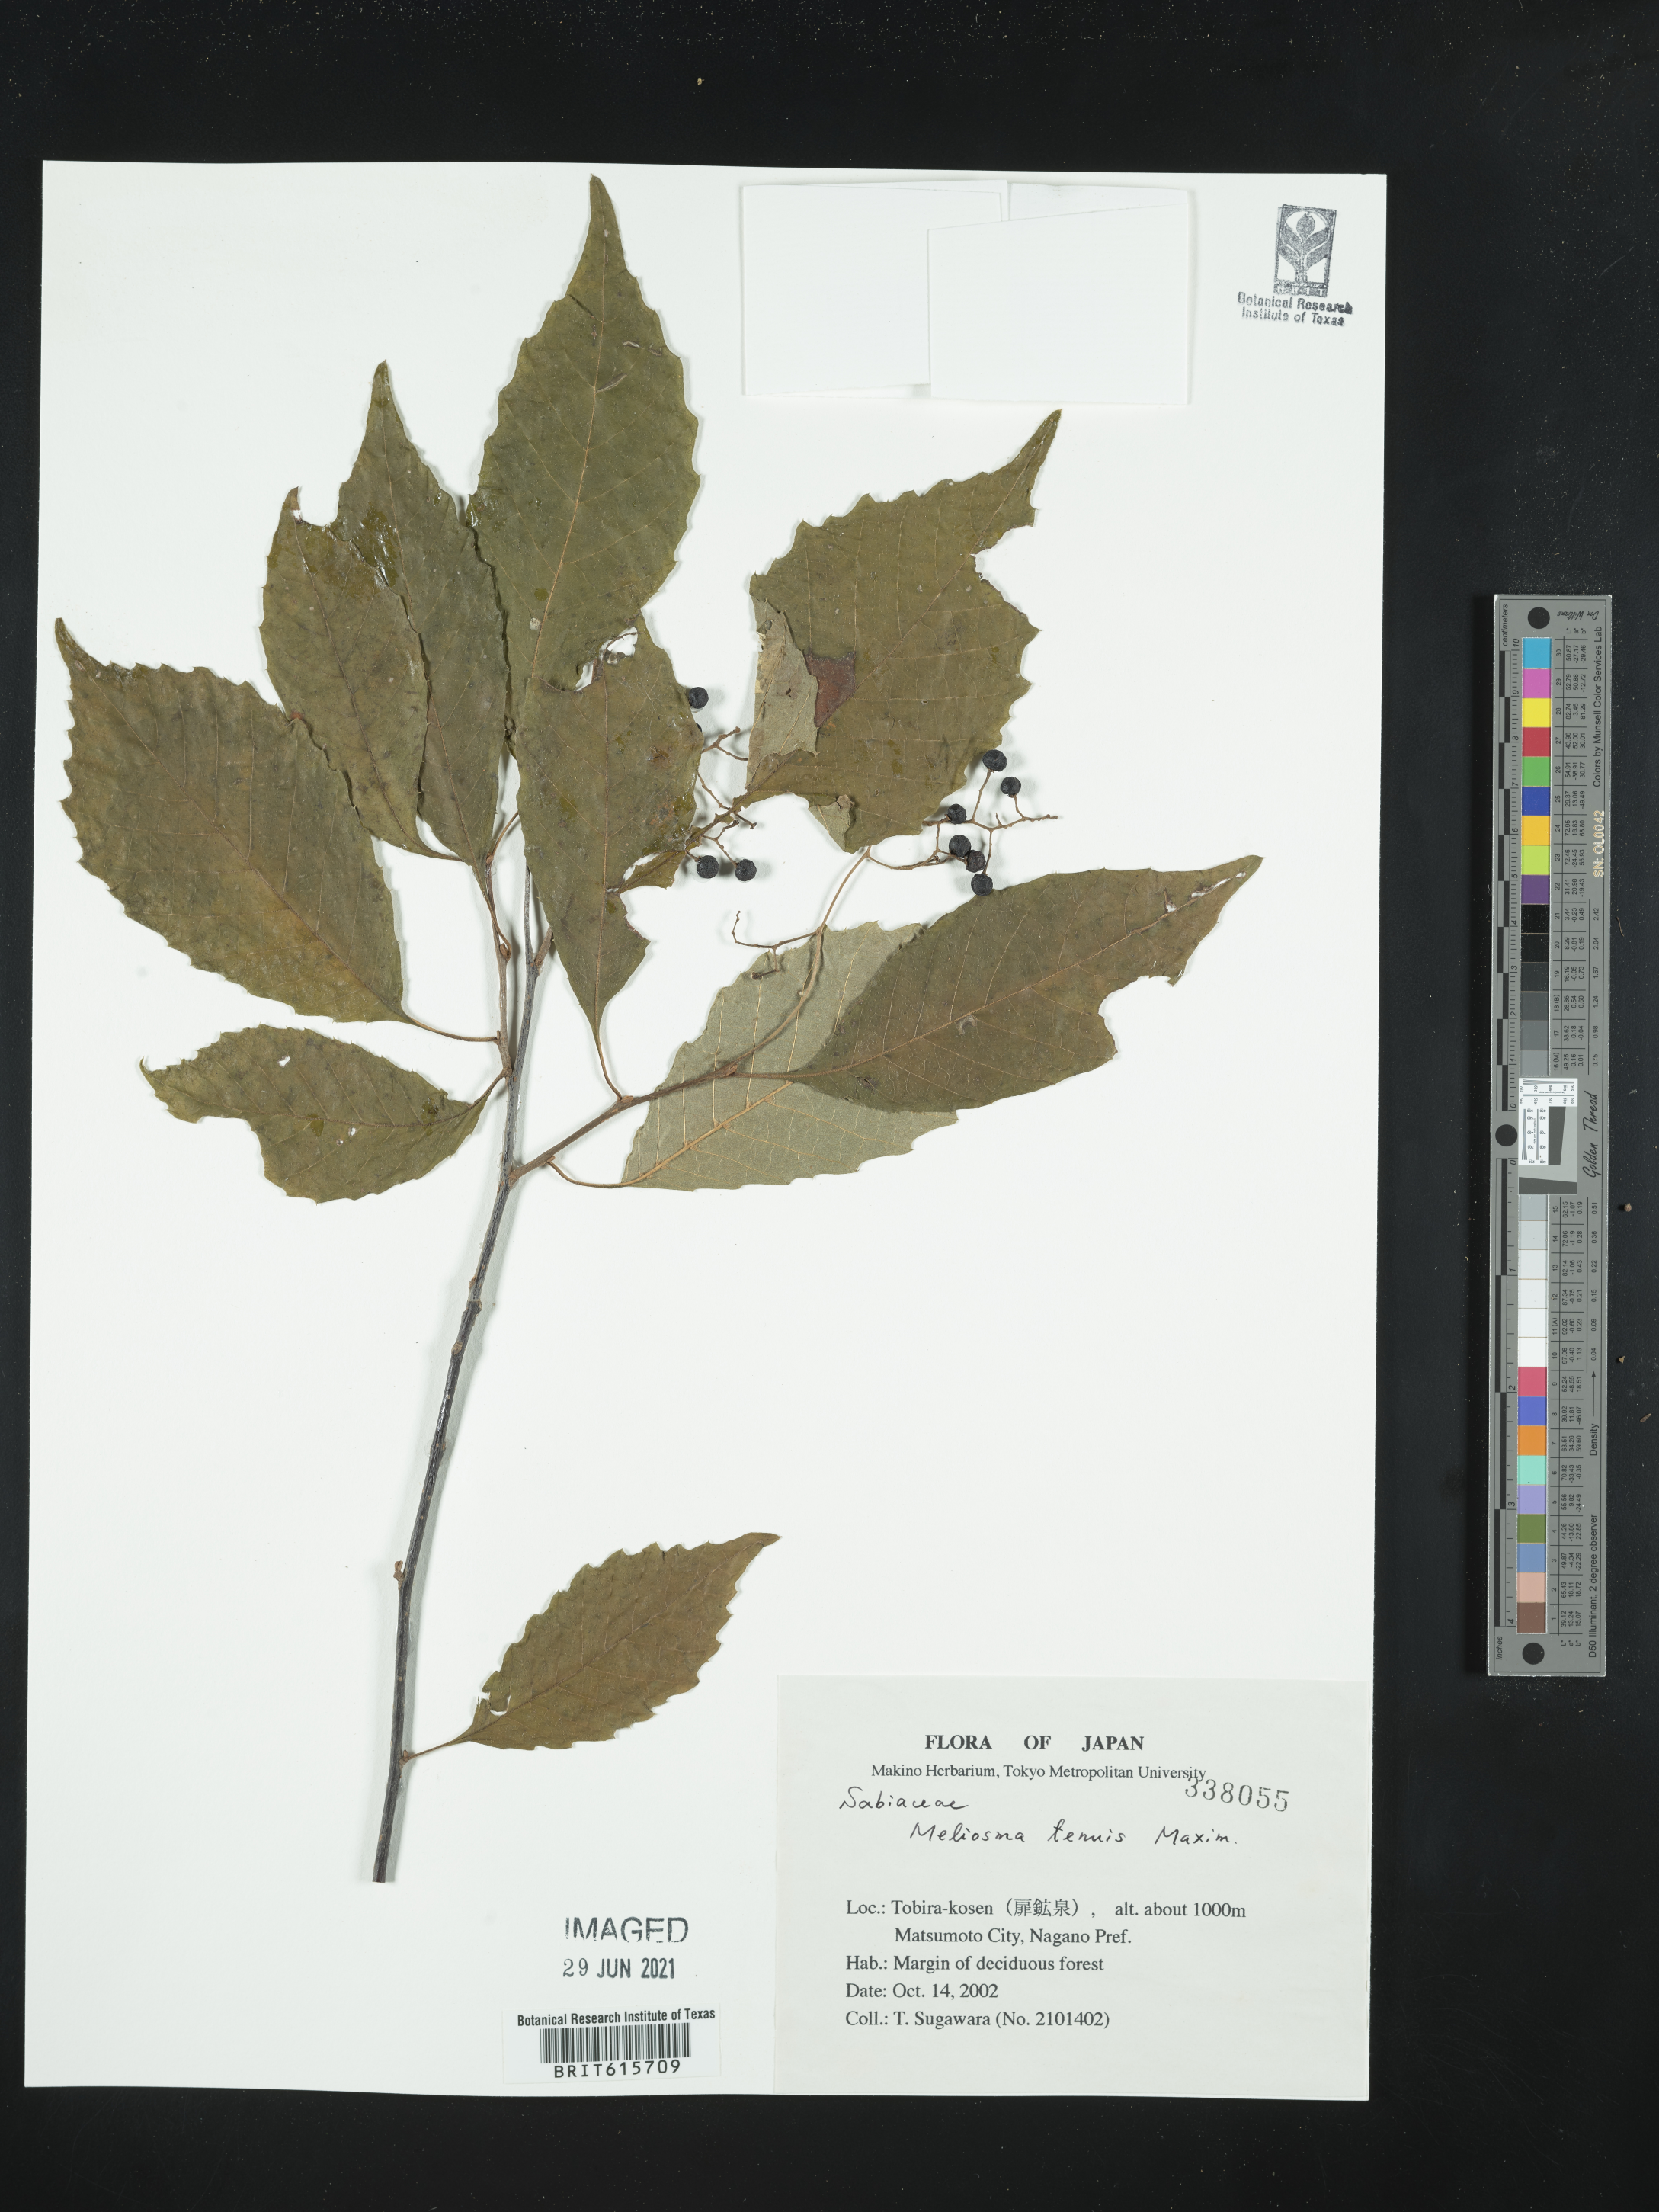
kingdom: Plantae
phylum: Tracheophyta
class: Magnoliopsida
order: Proteales
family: Sabiaceae
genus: Meliosma
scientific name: Meliosma tenuis
